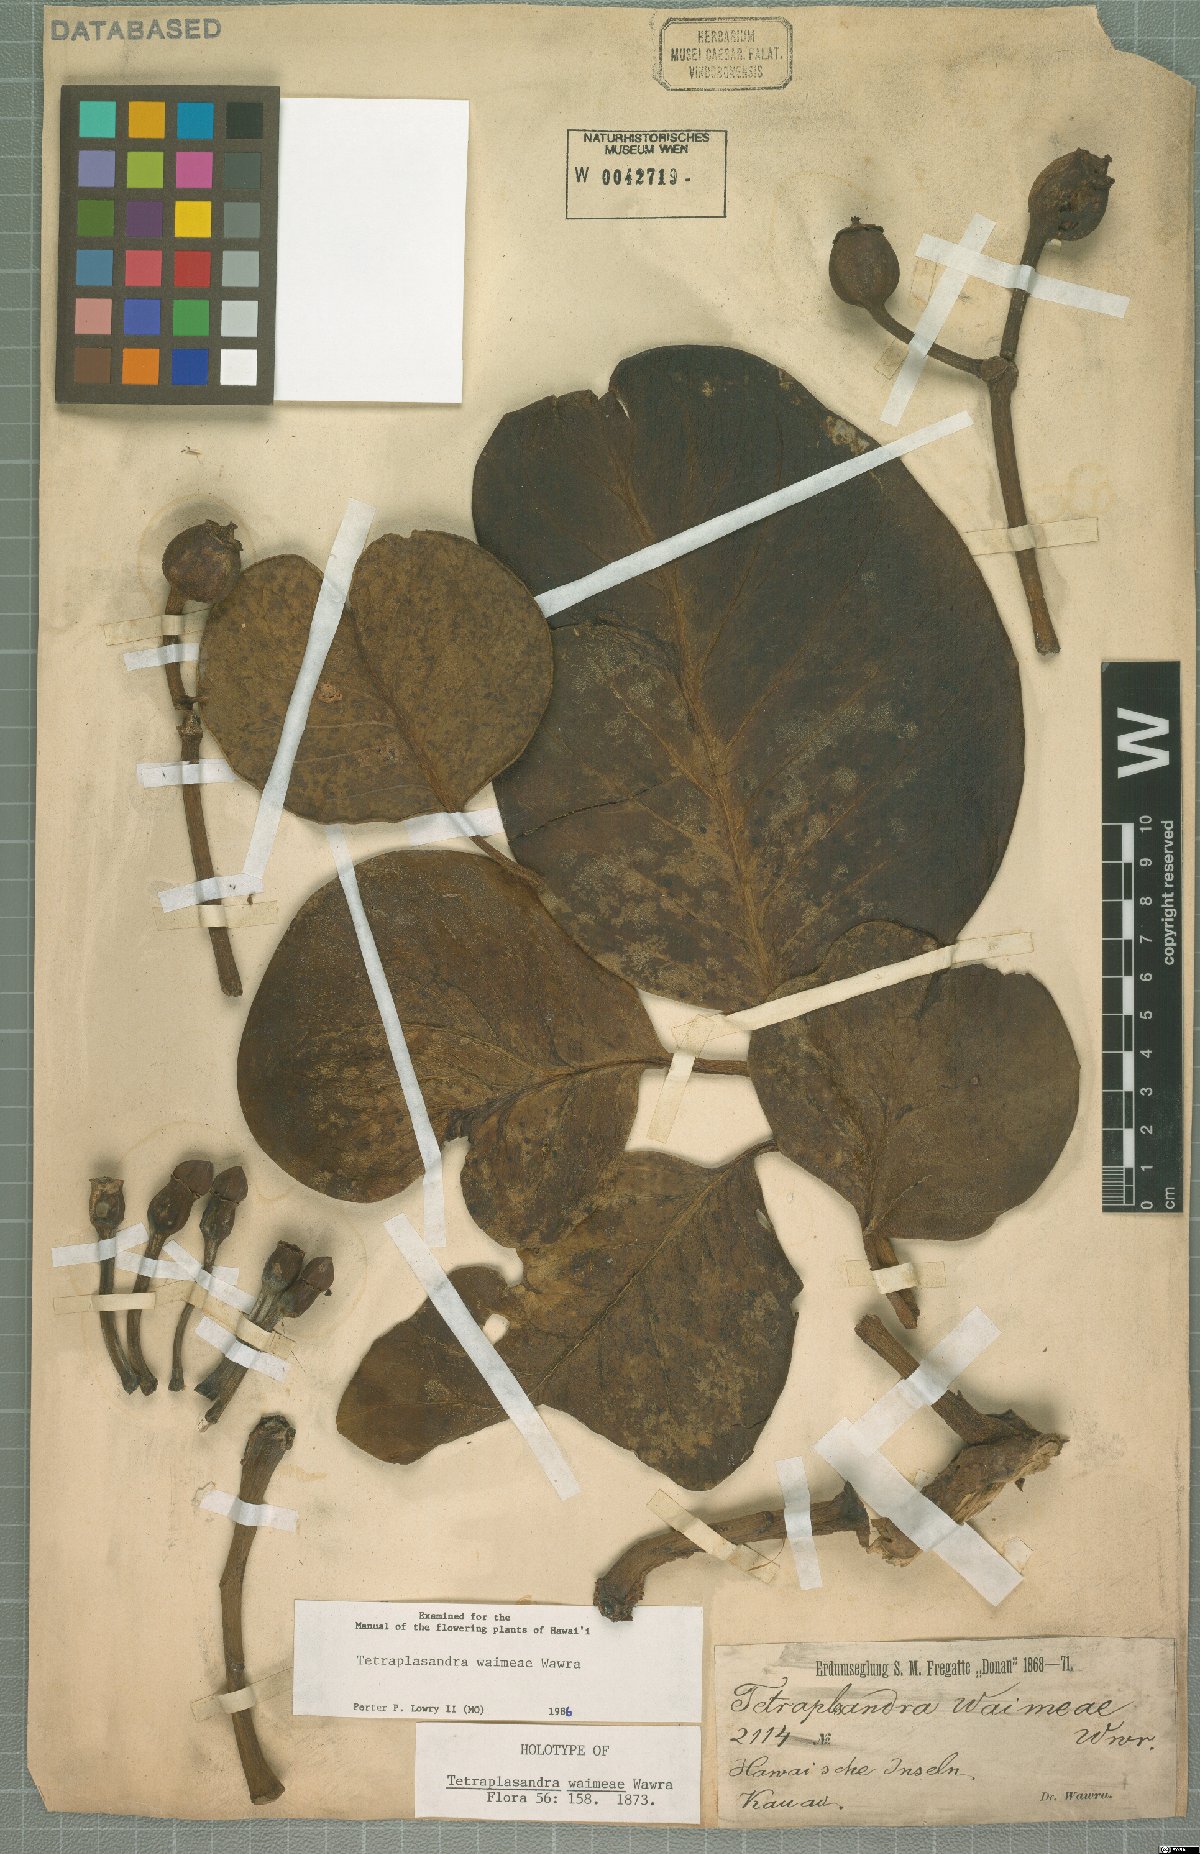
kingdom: Plantae
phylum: Tracheophyta
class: Magnoliopsida
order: Apiales
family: Araliaceae
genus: Polyscias
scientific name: Polyscias waimeae
